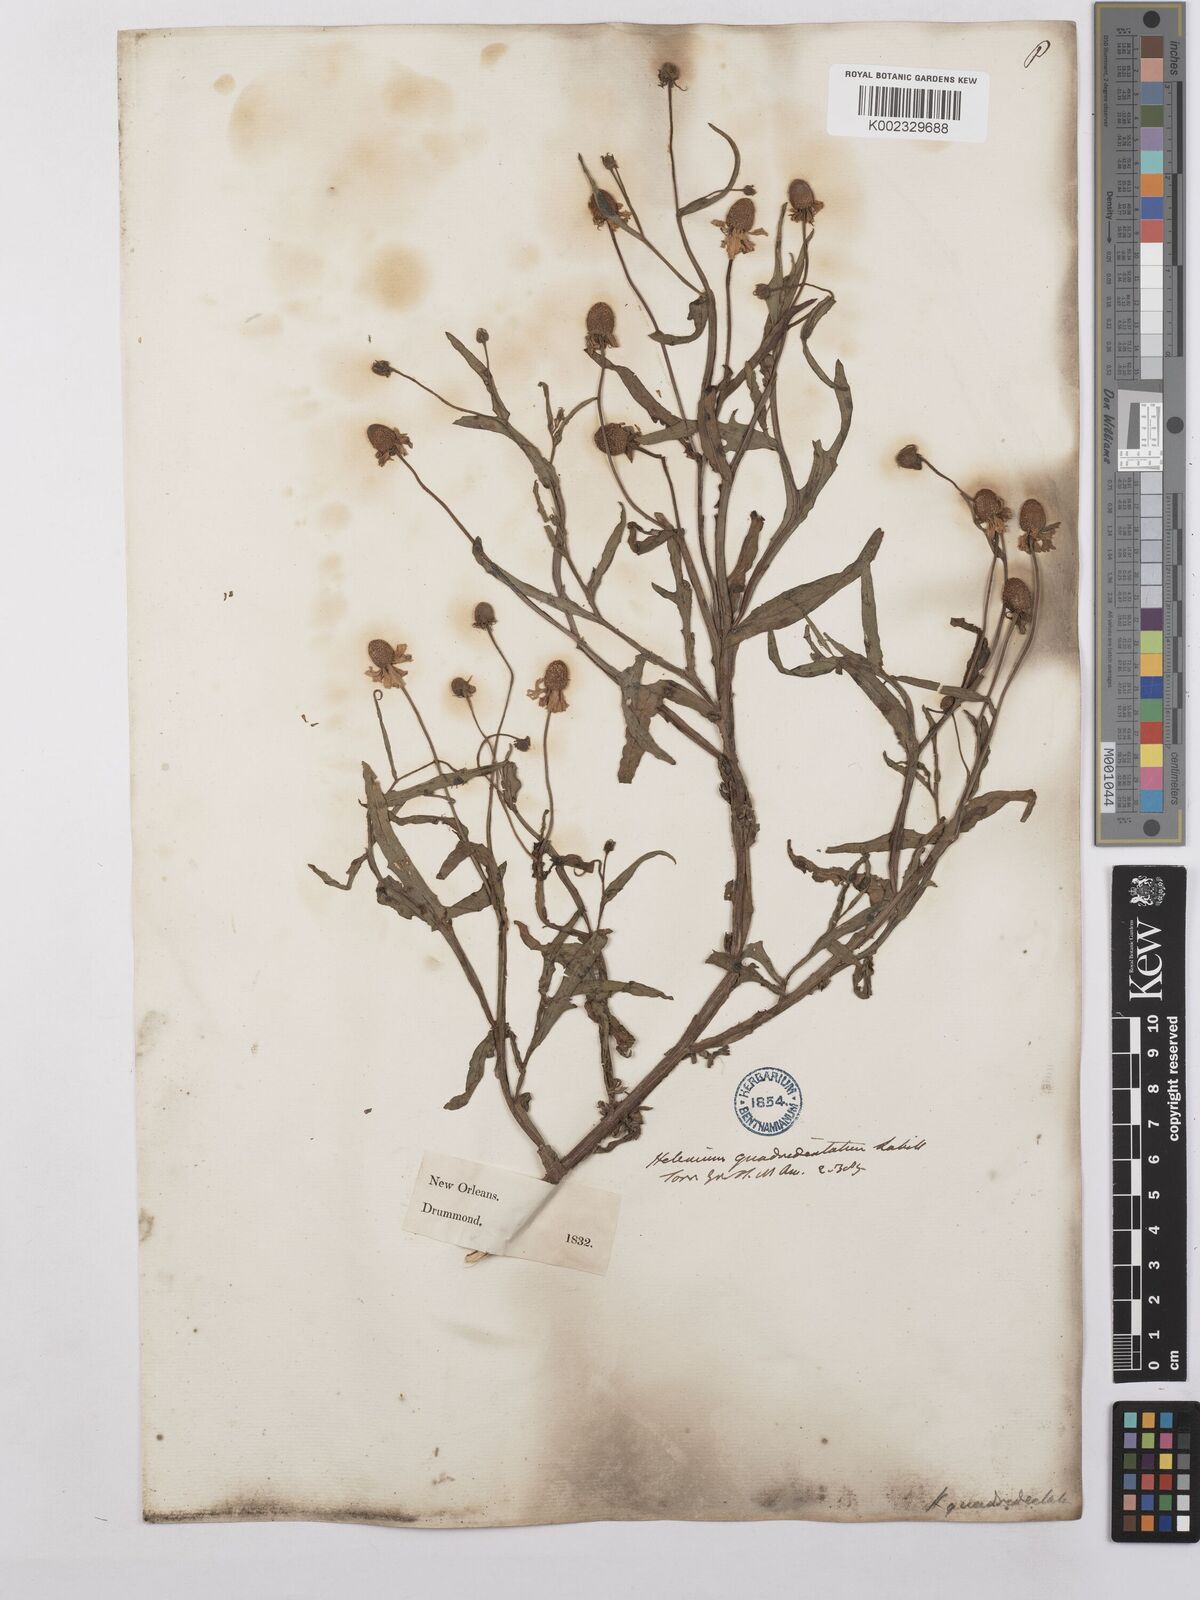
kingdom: Plantae
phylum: Tracheophyta
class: Magnoliopsida
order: Asterales
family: Asteraceae
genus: Helenium
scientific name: Helenium quadridentatum
